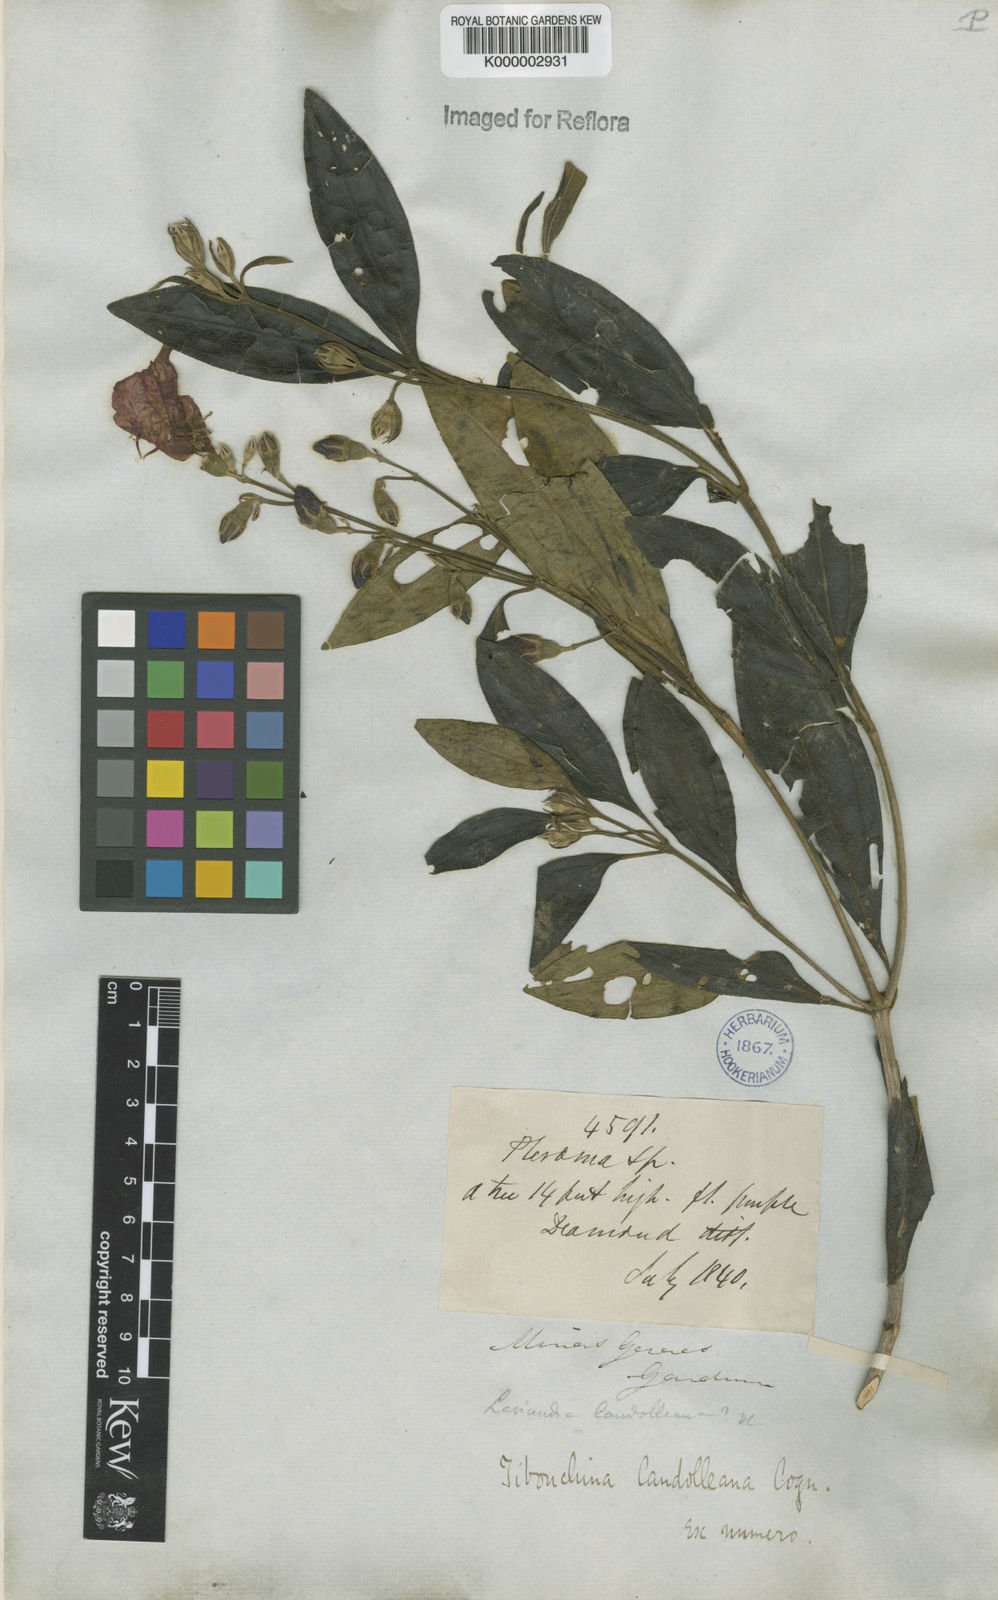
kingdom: Plantae
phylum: Tracheophyta
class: Magnoliopsida
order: Myrtales
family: Melastomataceae
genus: Pleroma
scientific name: Pleroma candolleanum
